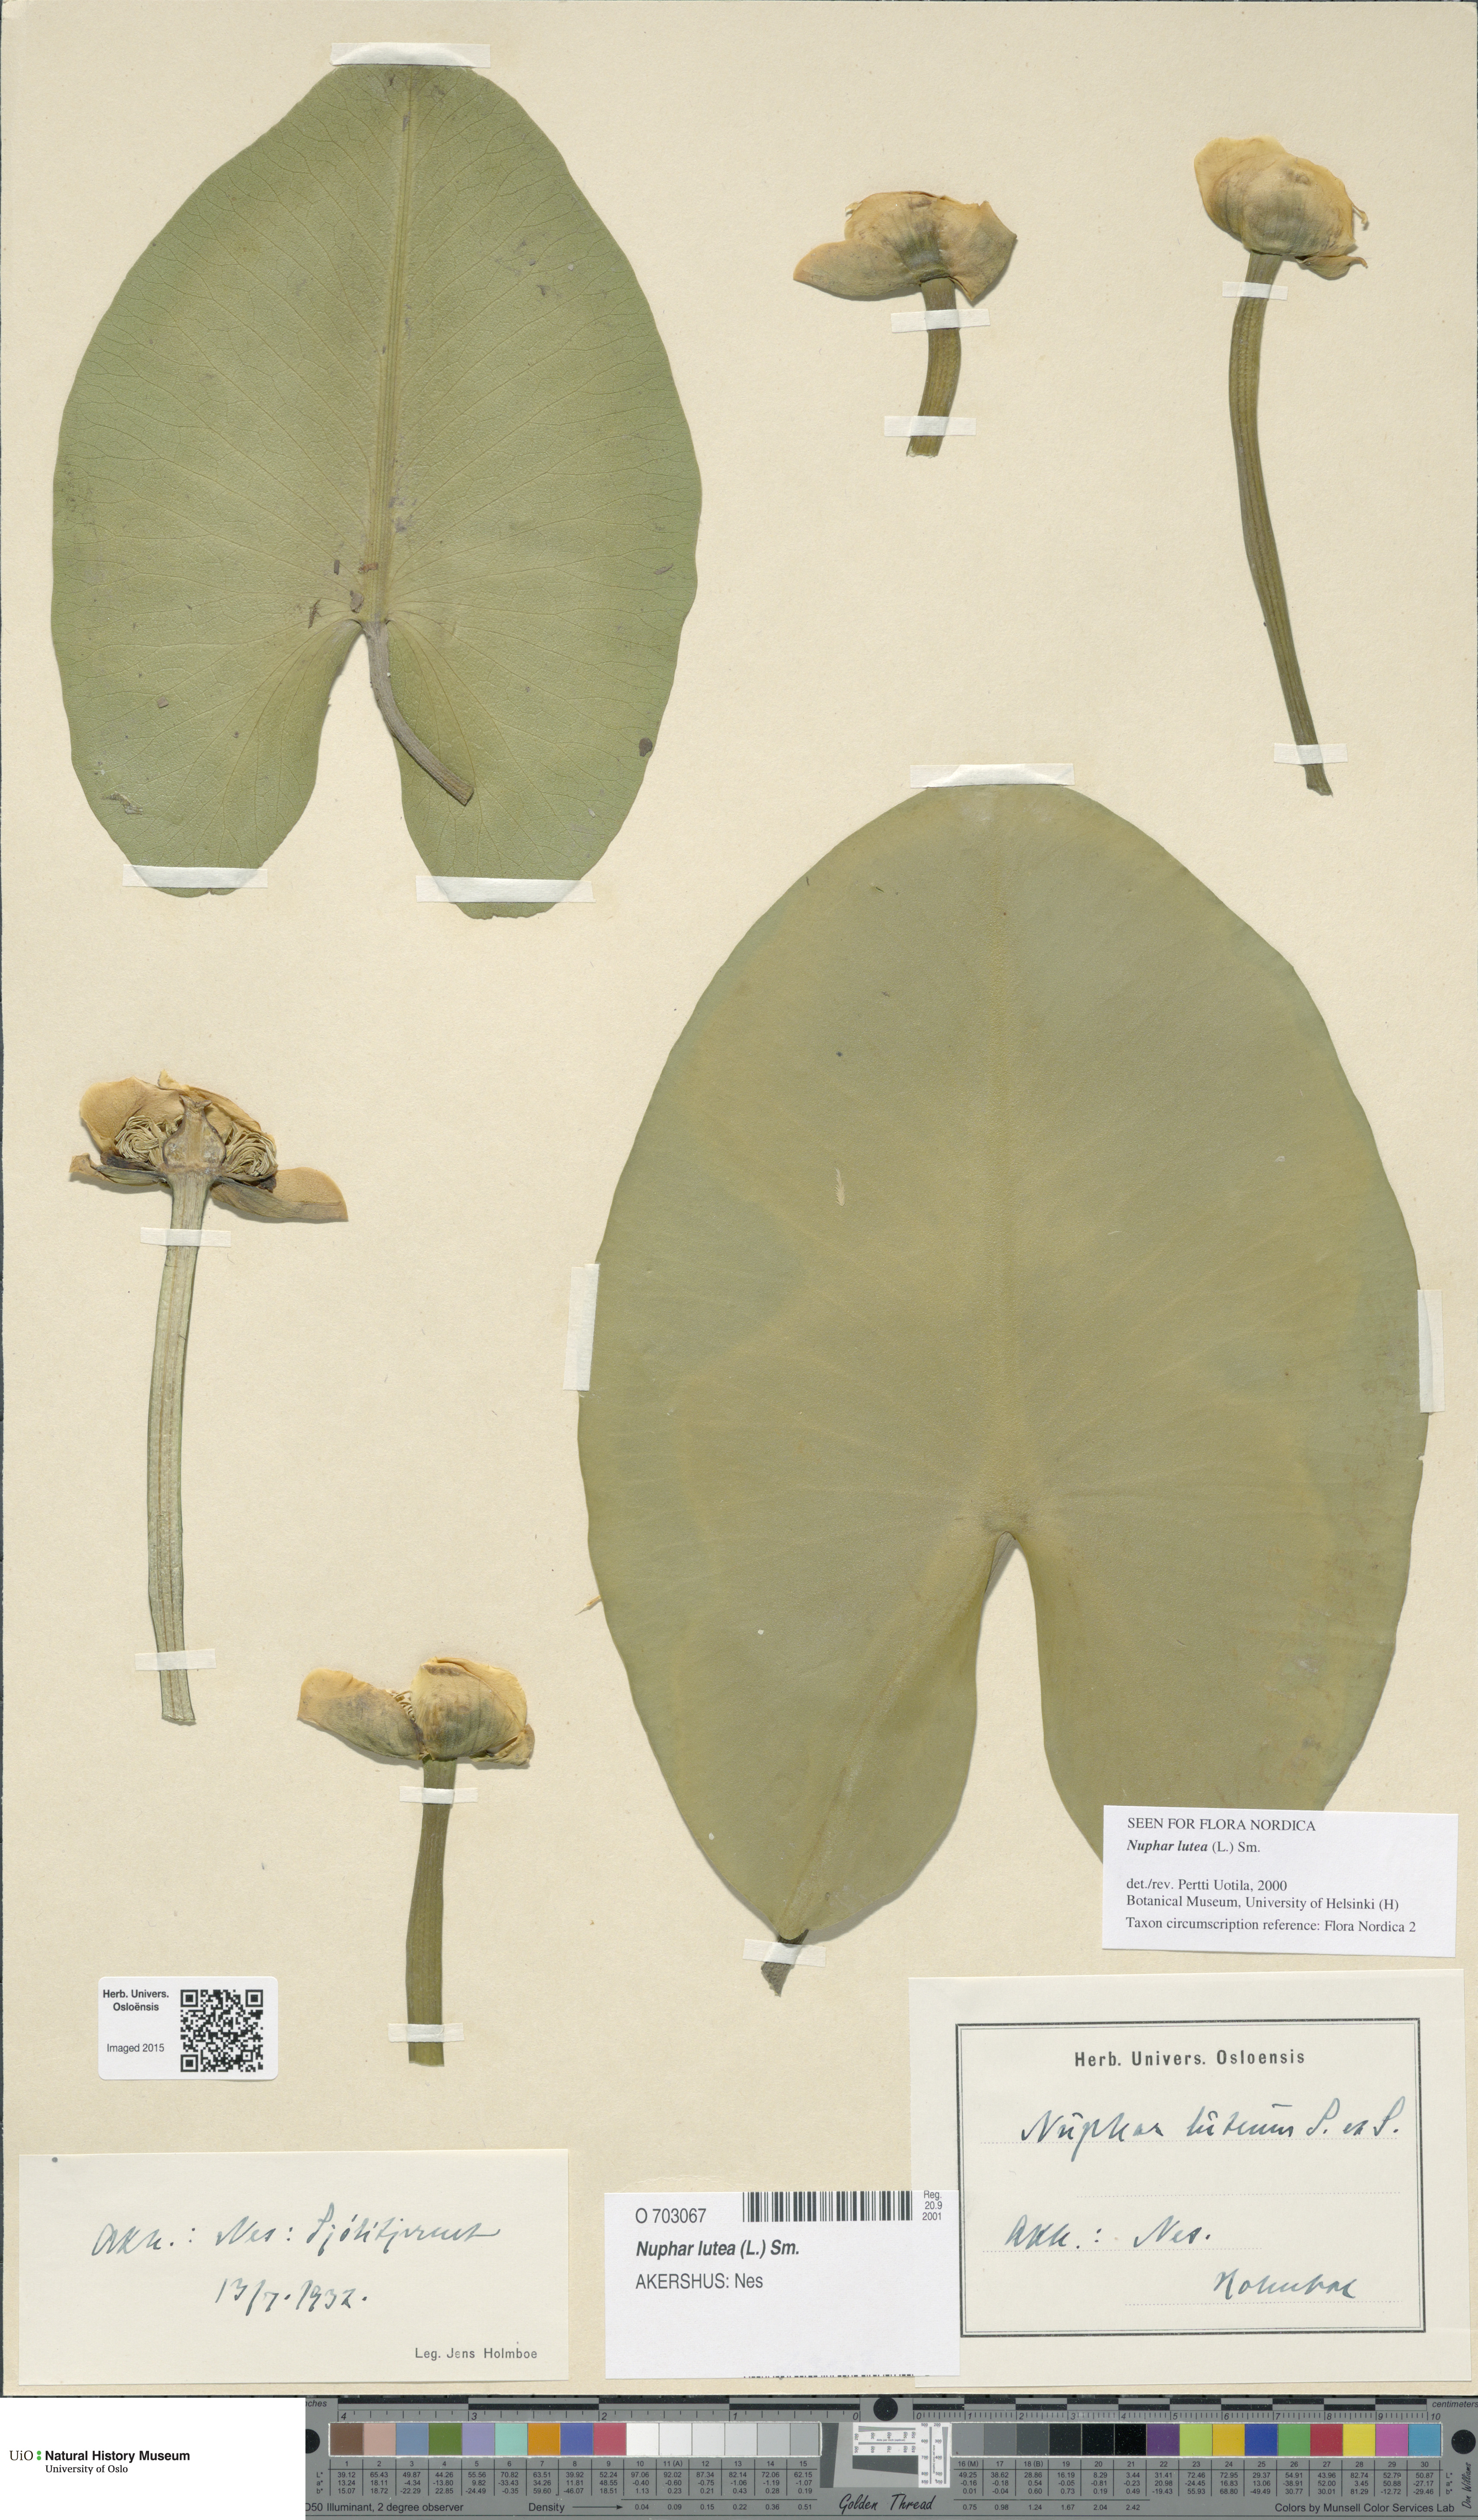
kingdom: Plantae
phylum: Tracheophyta
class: Magnoliopsida
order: Nymphaeales
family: Nymphaeaceae
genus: Nuphar
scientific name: Nuphar lutea
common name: Yellow water-lily
